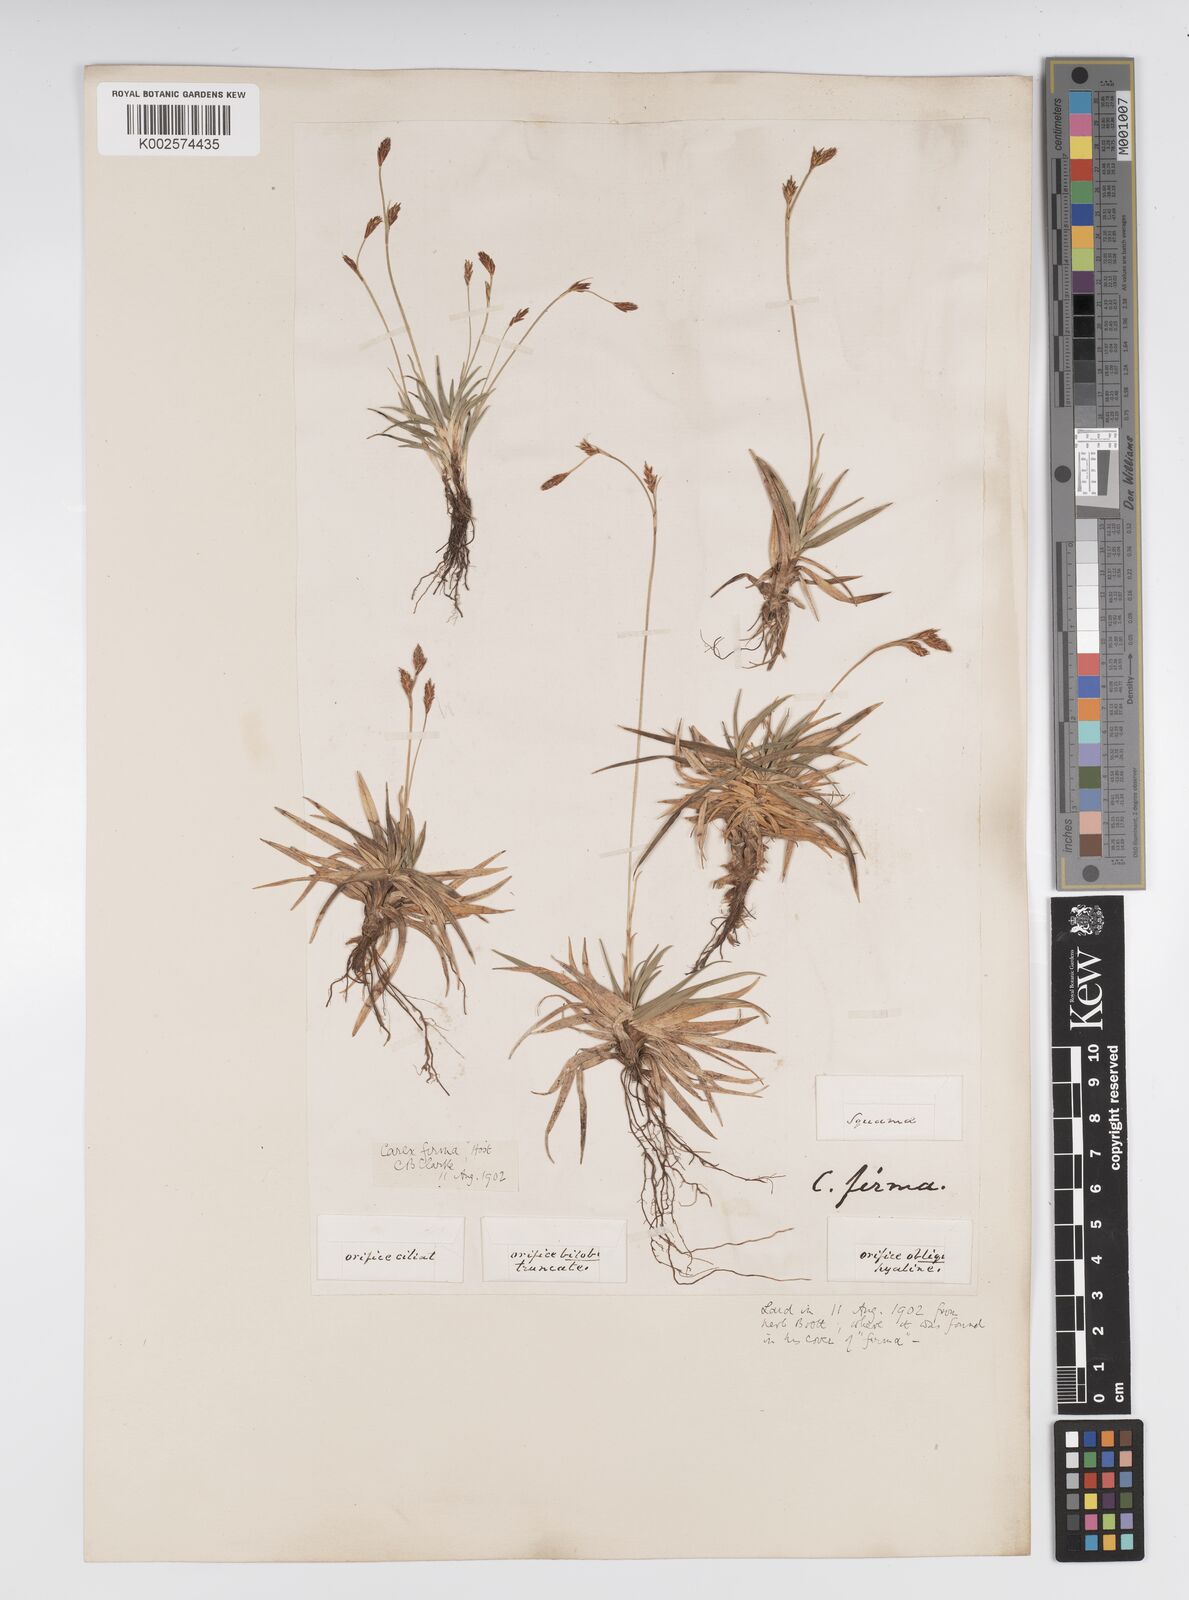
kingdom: Plantae
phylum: Tracheophyta
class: Liliopsida
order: Poales
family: Cyperaceae
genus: Carex
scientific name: Carex firma
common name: Dwarf pillow sedge
